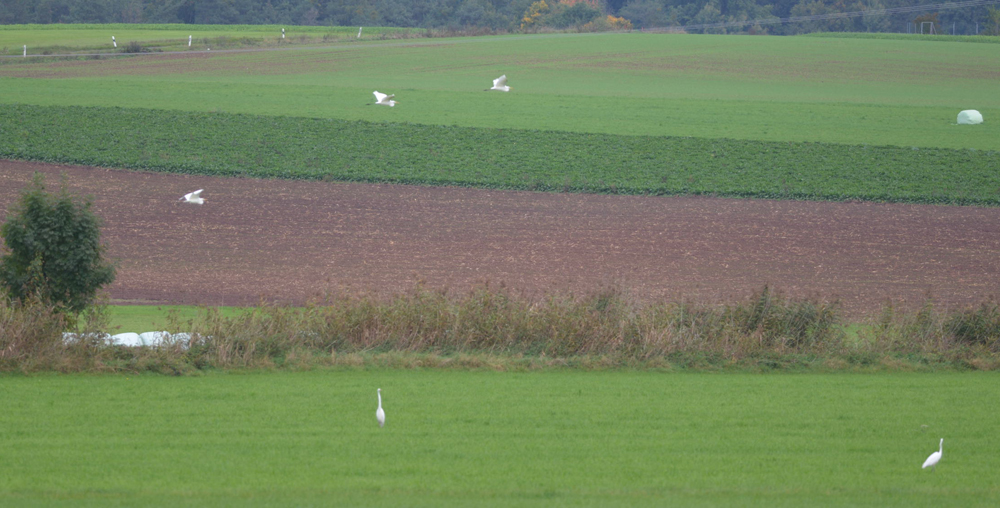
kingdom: Animalia
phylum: Chordata
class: Aves
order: Pelecaniformes
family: Ardeidae
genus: Ardea
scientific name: Ardea alba
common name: Great egret
